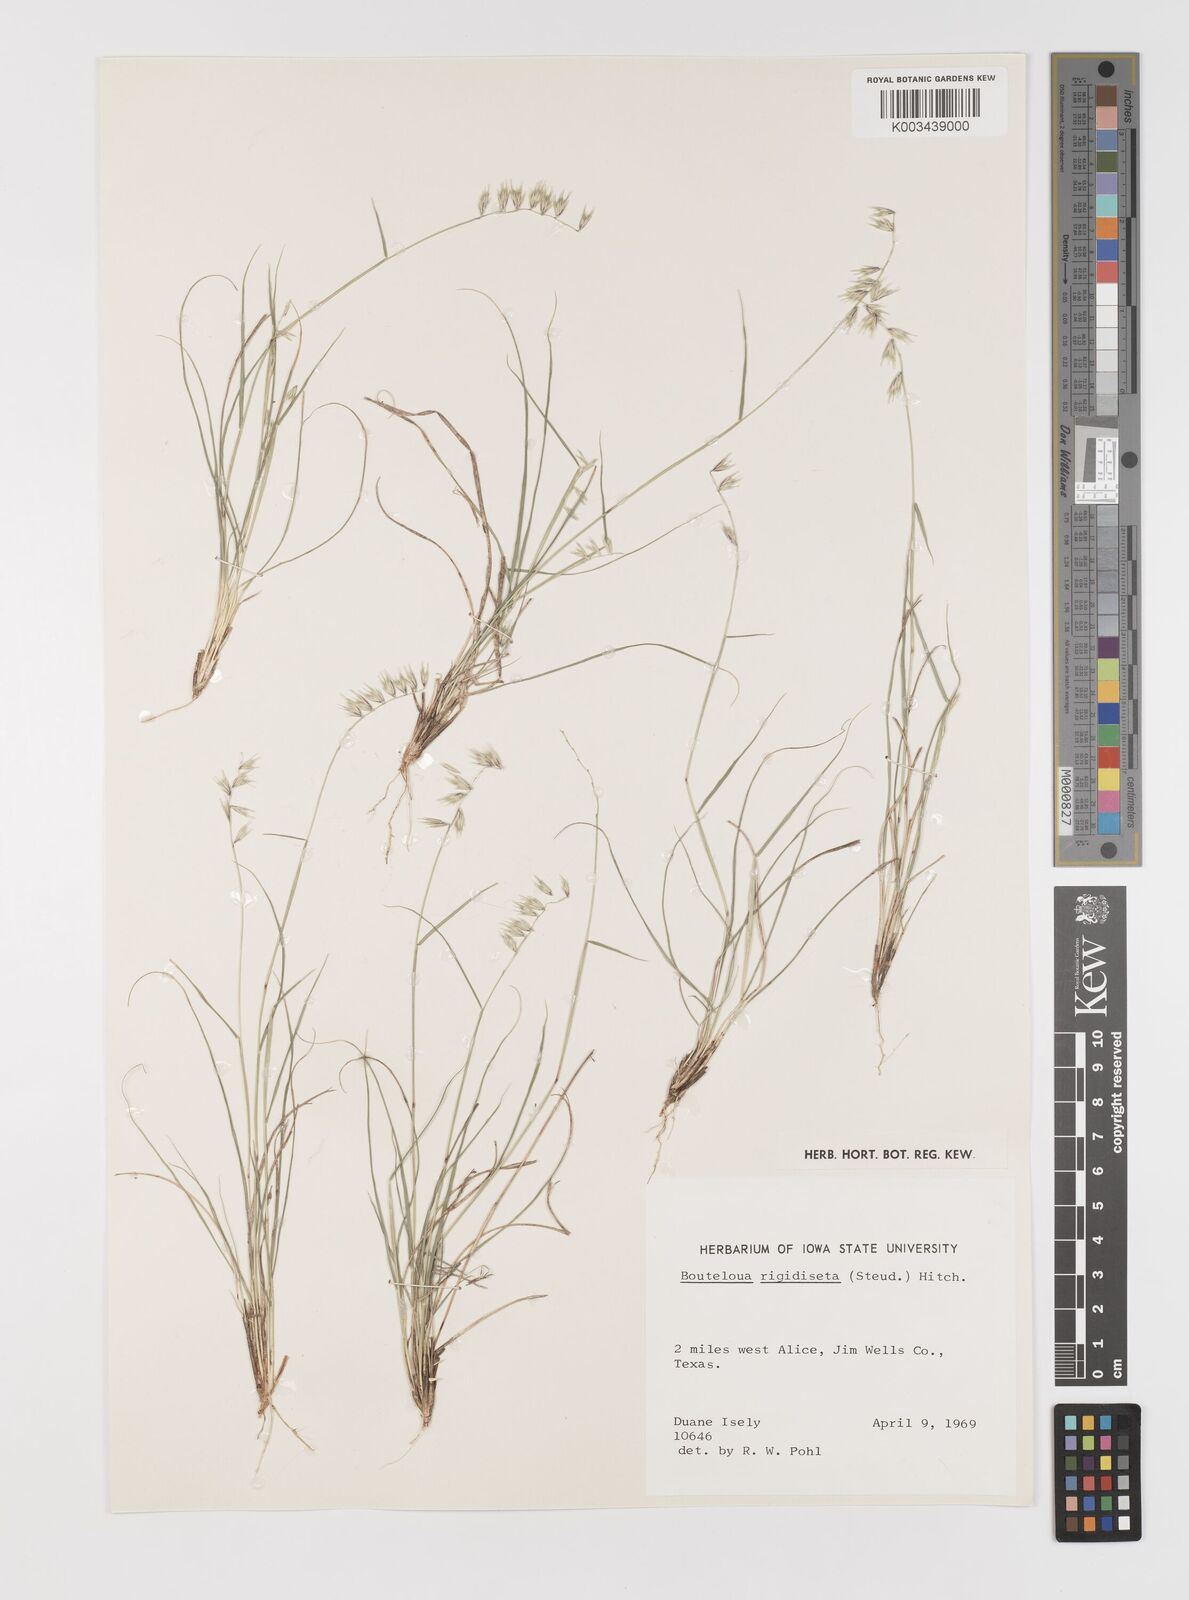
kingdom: Plantae
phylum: Tracheophyta
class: Liliopsida
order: Poales
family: Poaceae
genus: Bouteloua
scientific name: Bouteloua rigidiseta
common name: Texas grama
